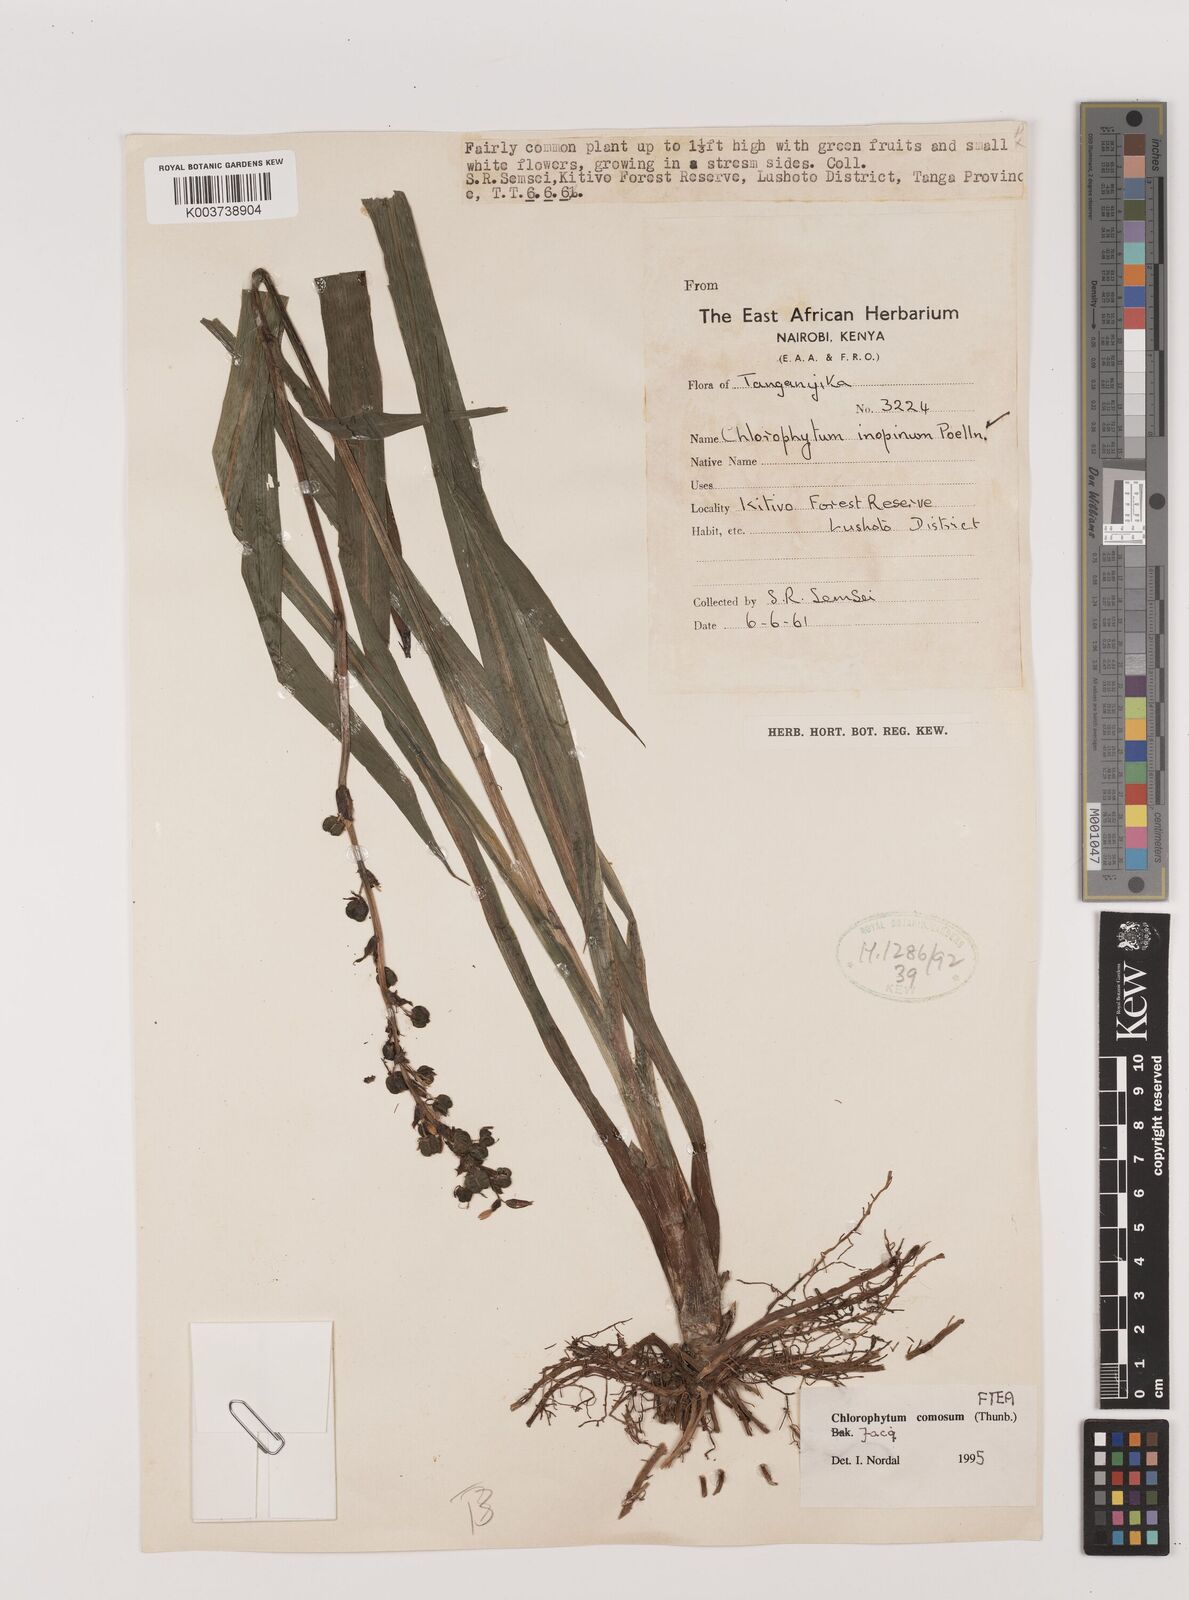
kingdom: Plantae
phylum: Tracheophyta
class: Liliopsida
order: Asparagales
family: Asparagaceae
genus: Chlorophytum
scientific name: Chlorophytum comosum
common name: Spider plant
